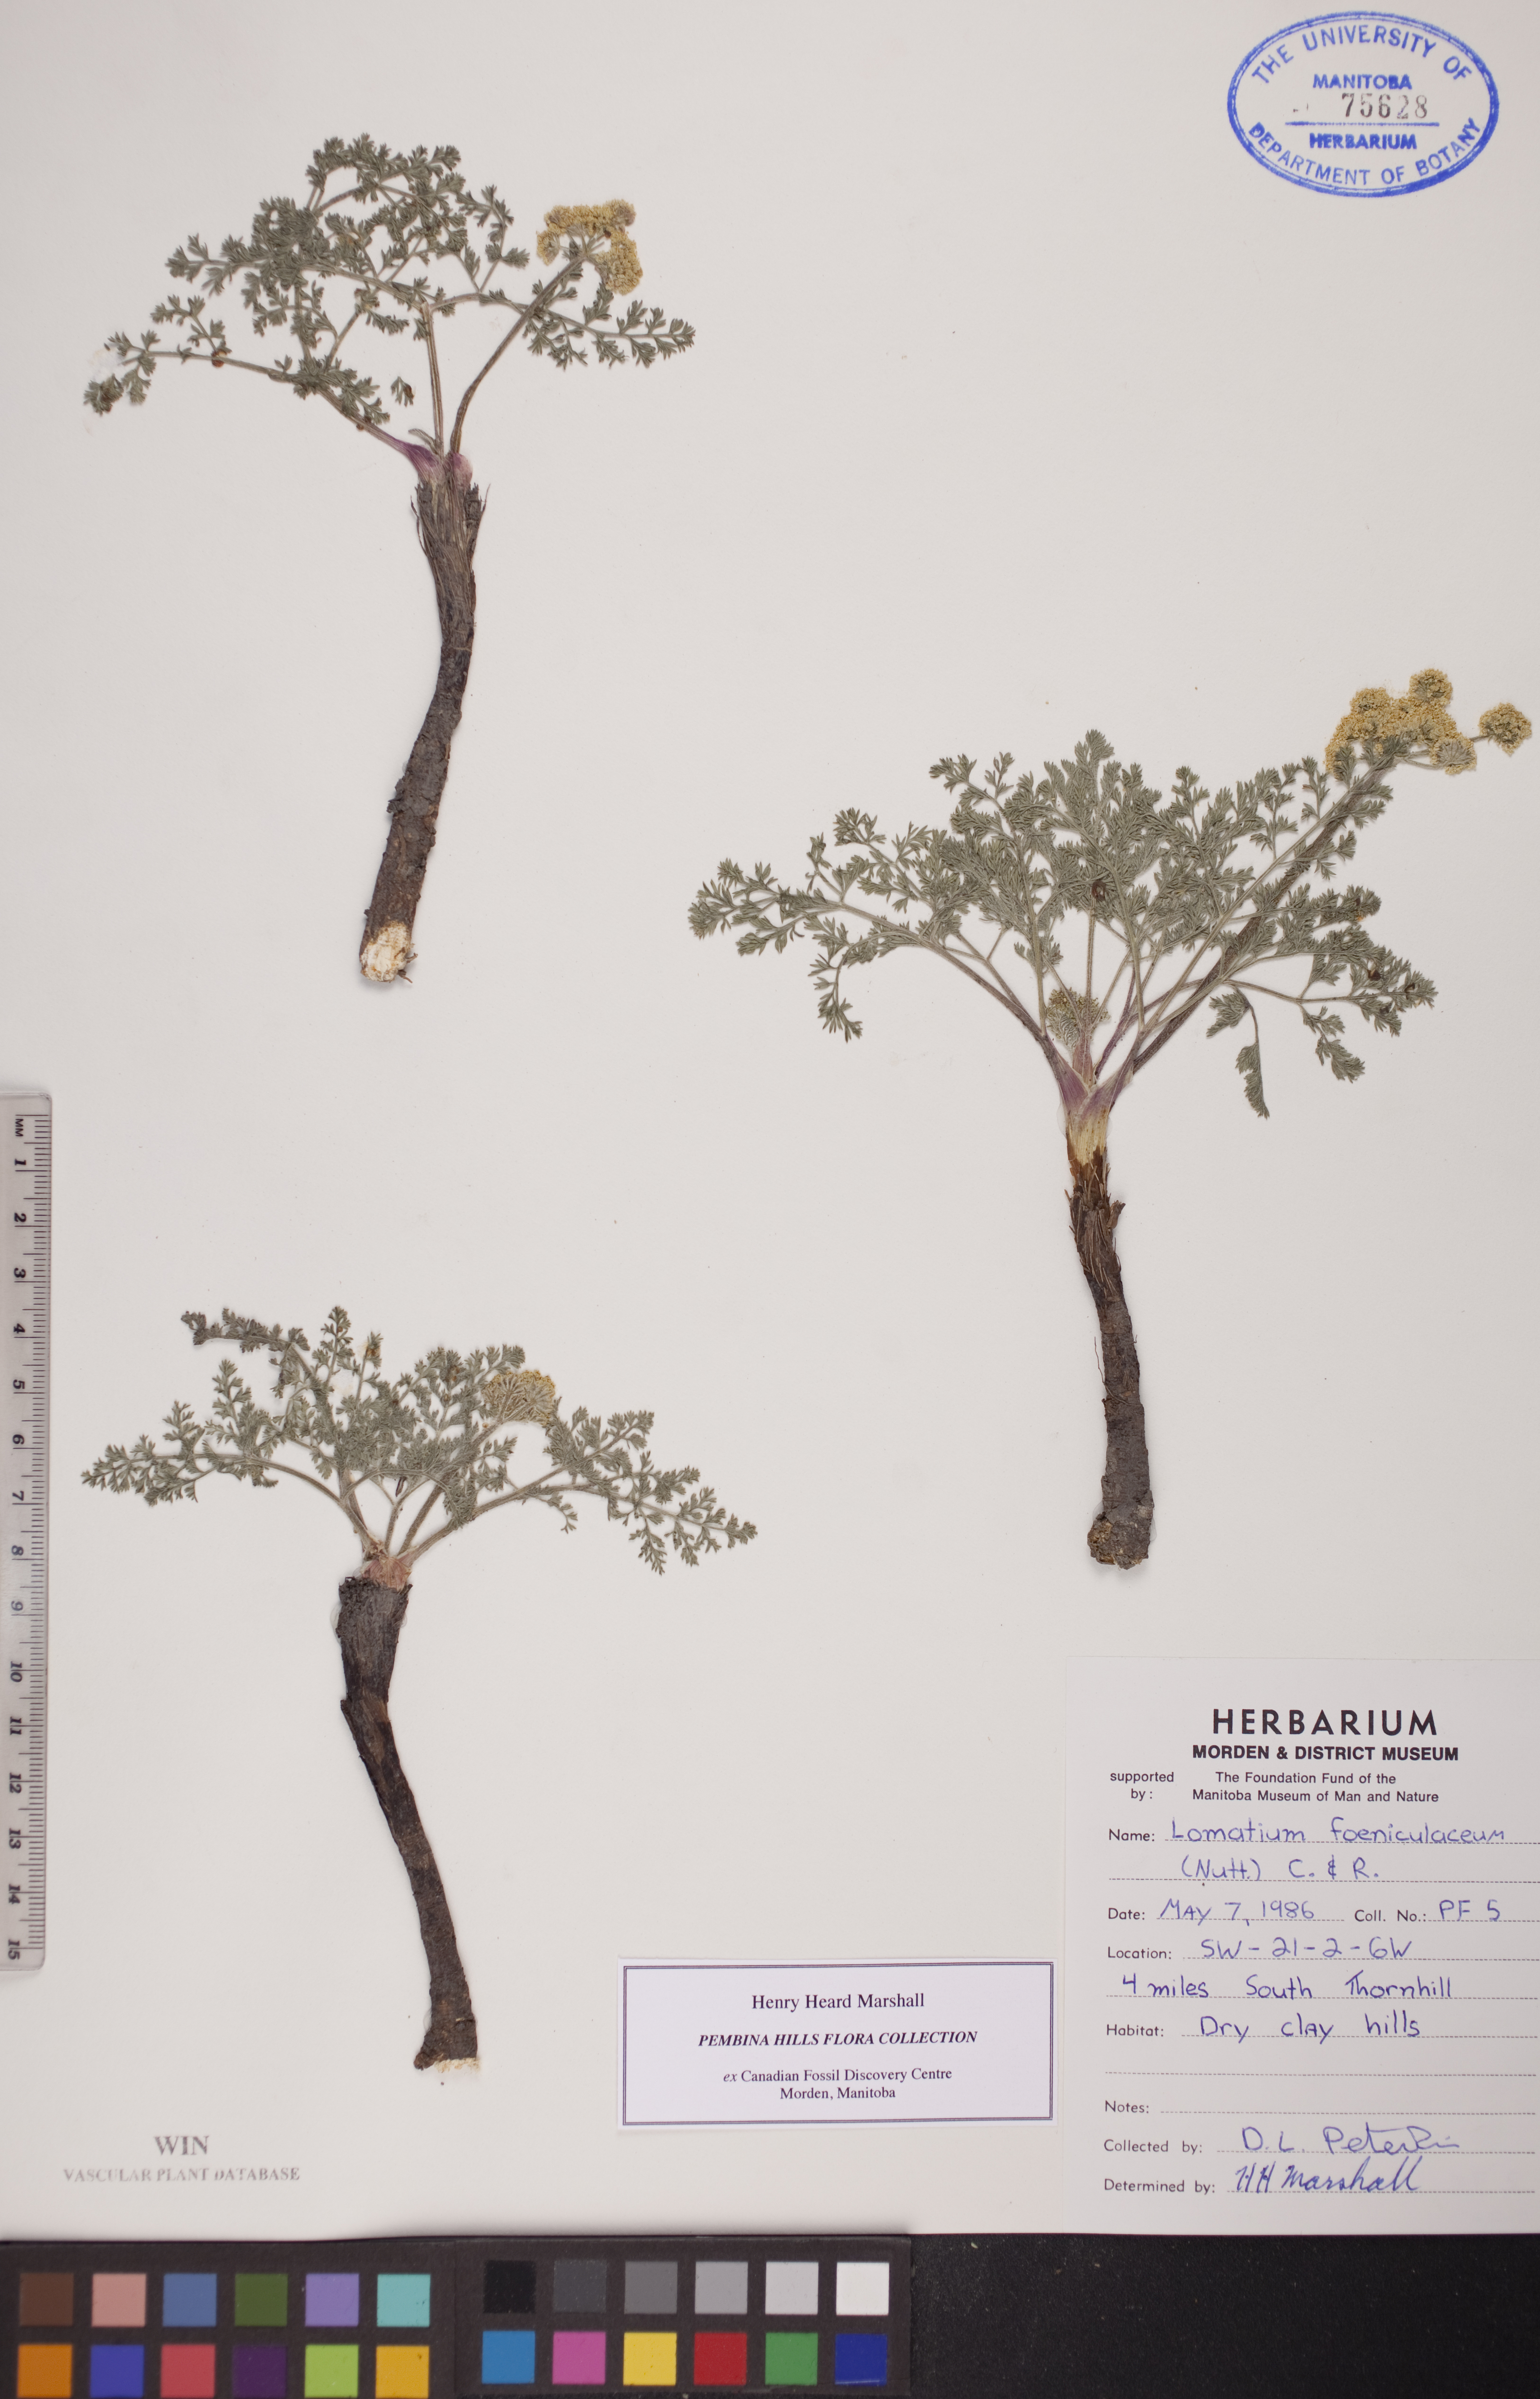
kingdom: Plantae
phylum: Tracheophyta
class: Magnoliopsida
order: Apiales
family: Apiaceae
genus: Lomatium
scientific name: Lomatium foeniculaceum
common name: Desert-parsley
